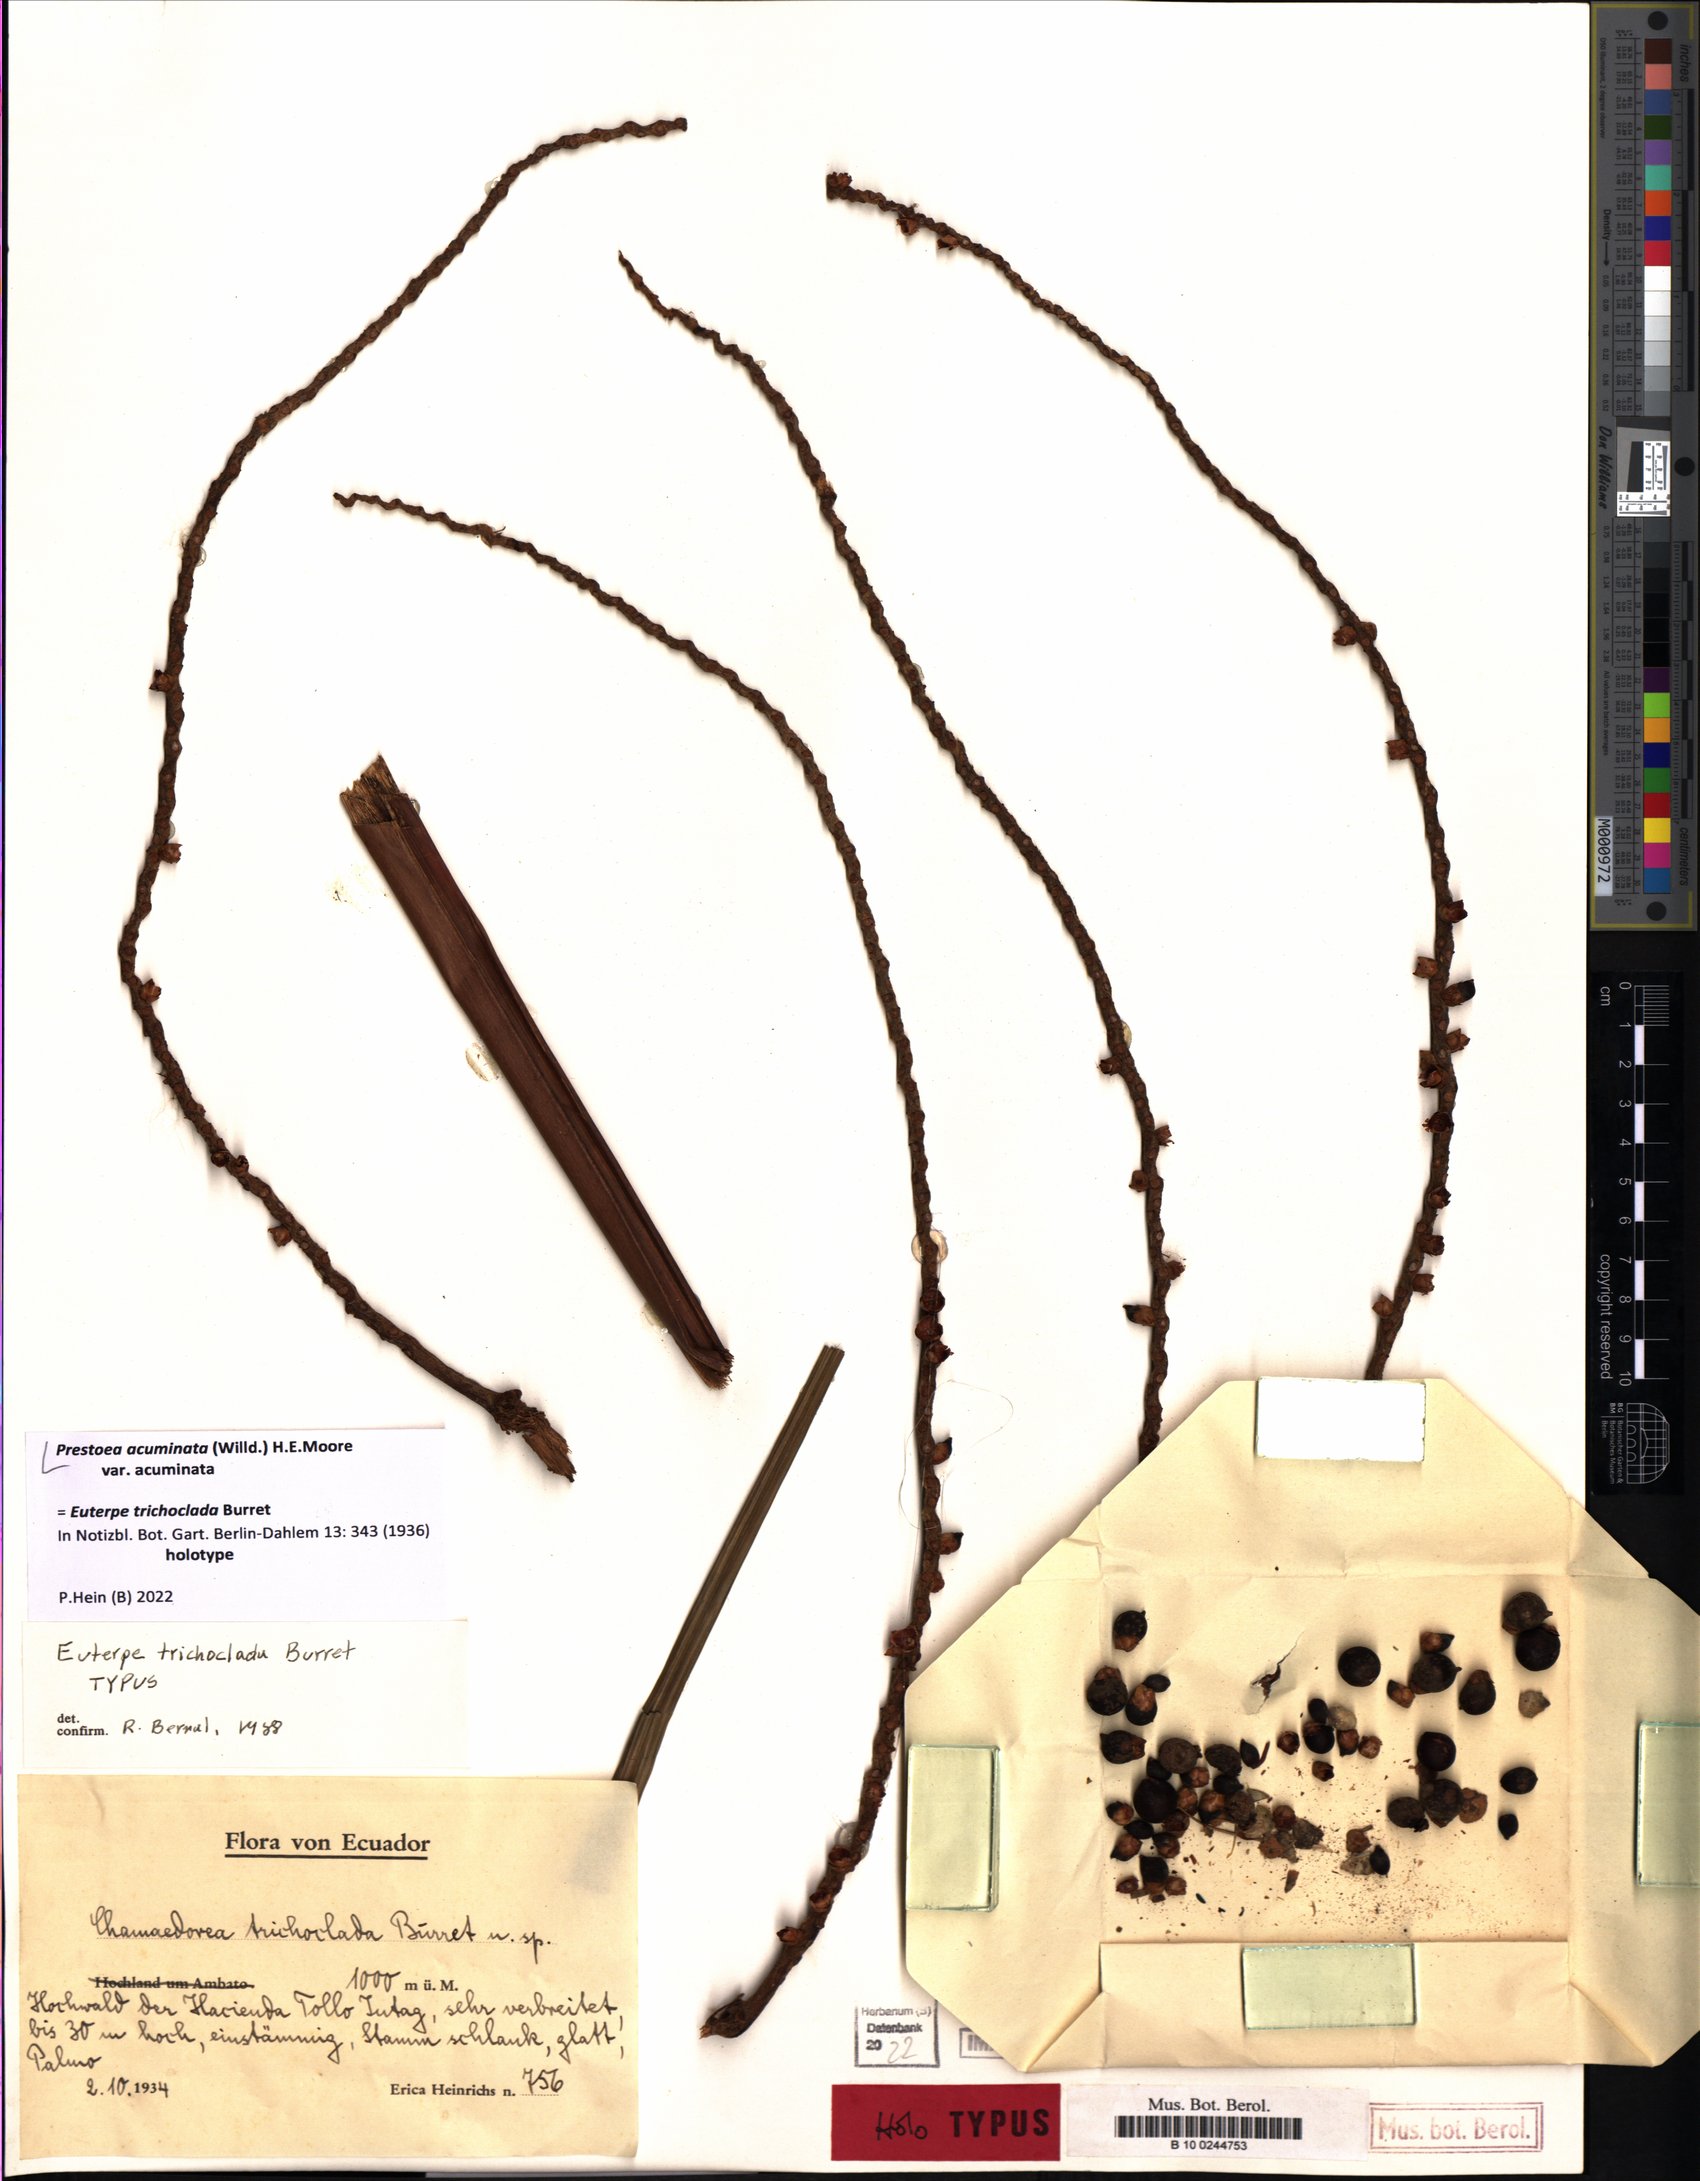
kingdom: Plantae
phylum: Tracheophyta
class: Liliopsida
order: Arecales
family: Arecaceae
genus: Prestoea
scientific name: Prestoea acuminata
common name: Sierran palm
